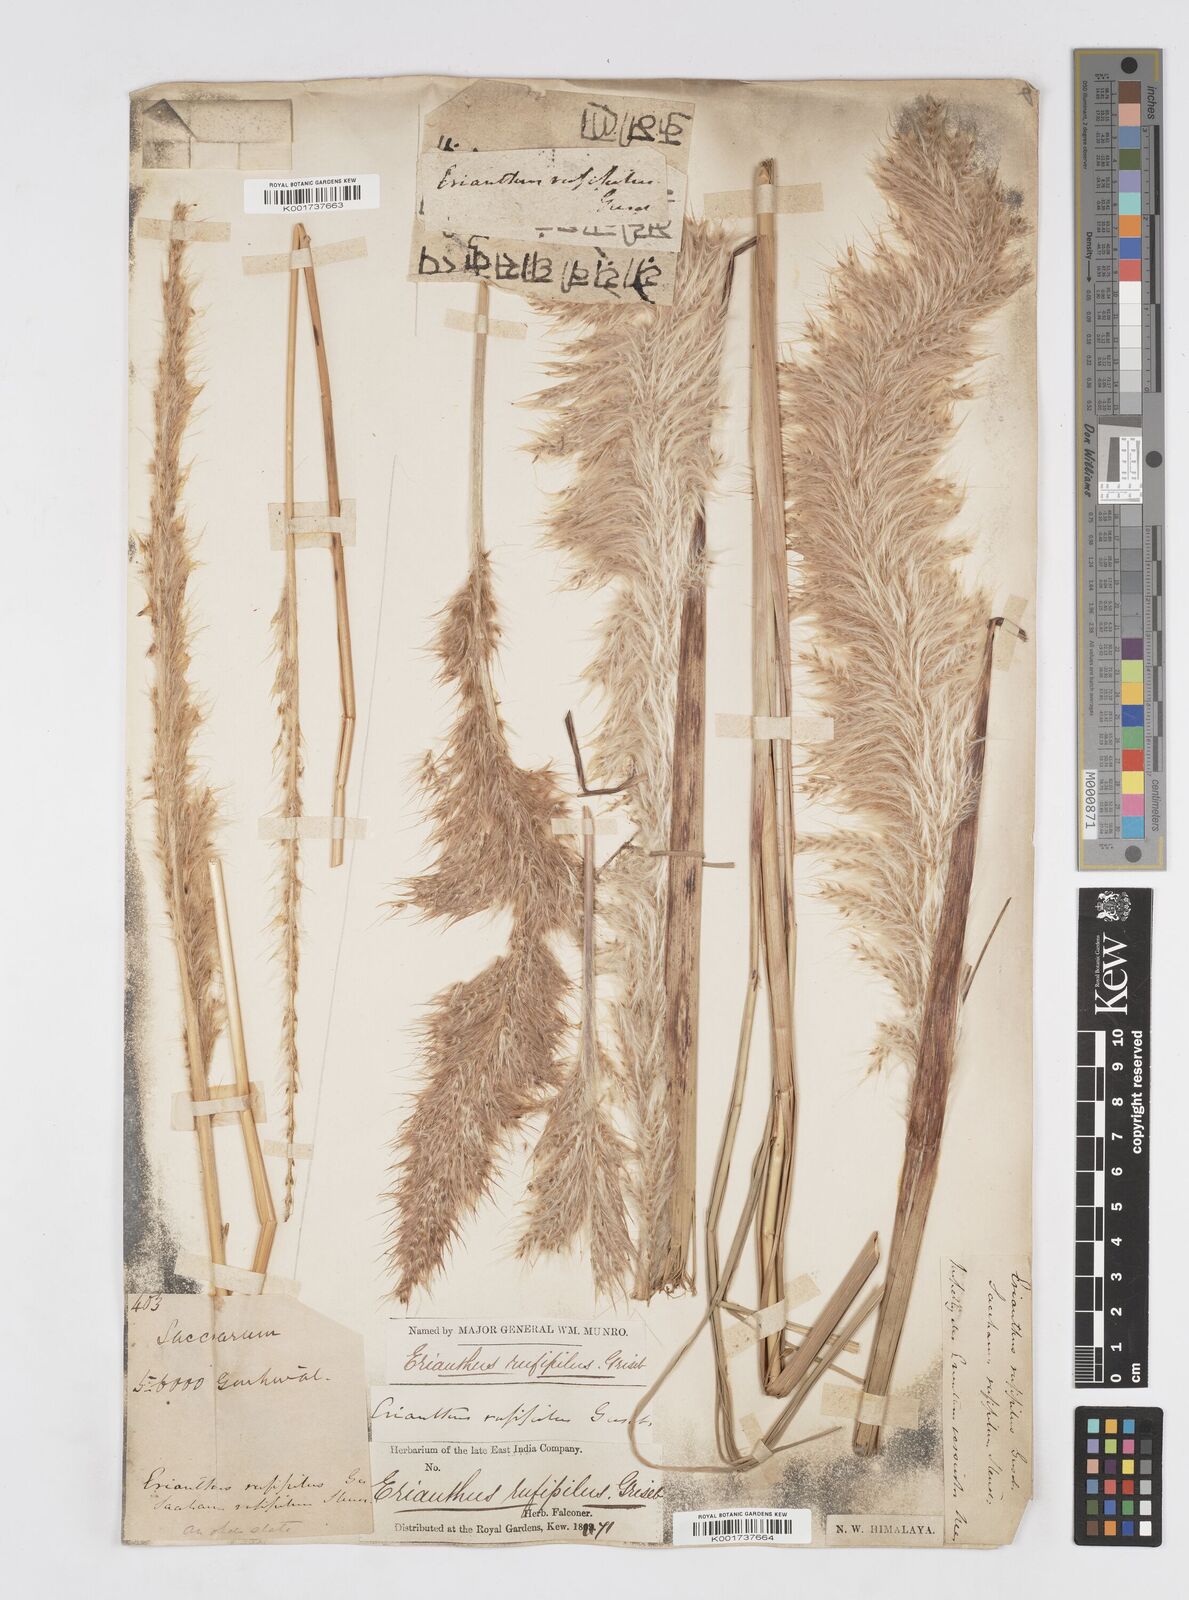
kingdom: Plantae
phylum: Tracheophyta
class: Liliopsida
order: Poales
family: Poaceae
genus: Tripidium
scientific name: Tripidium rufipilum
